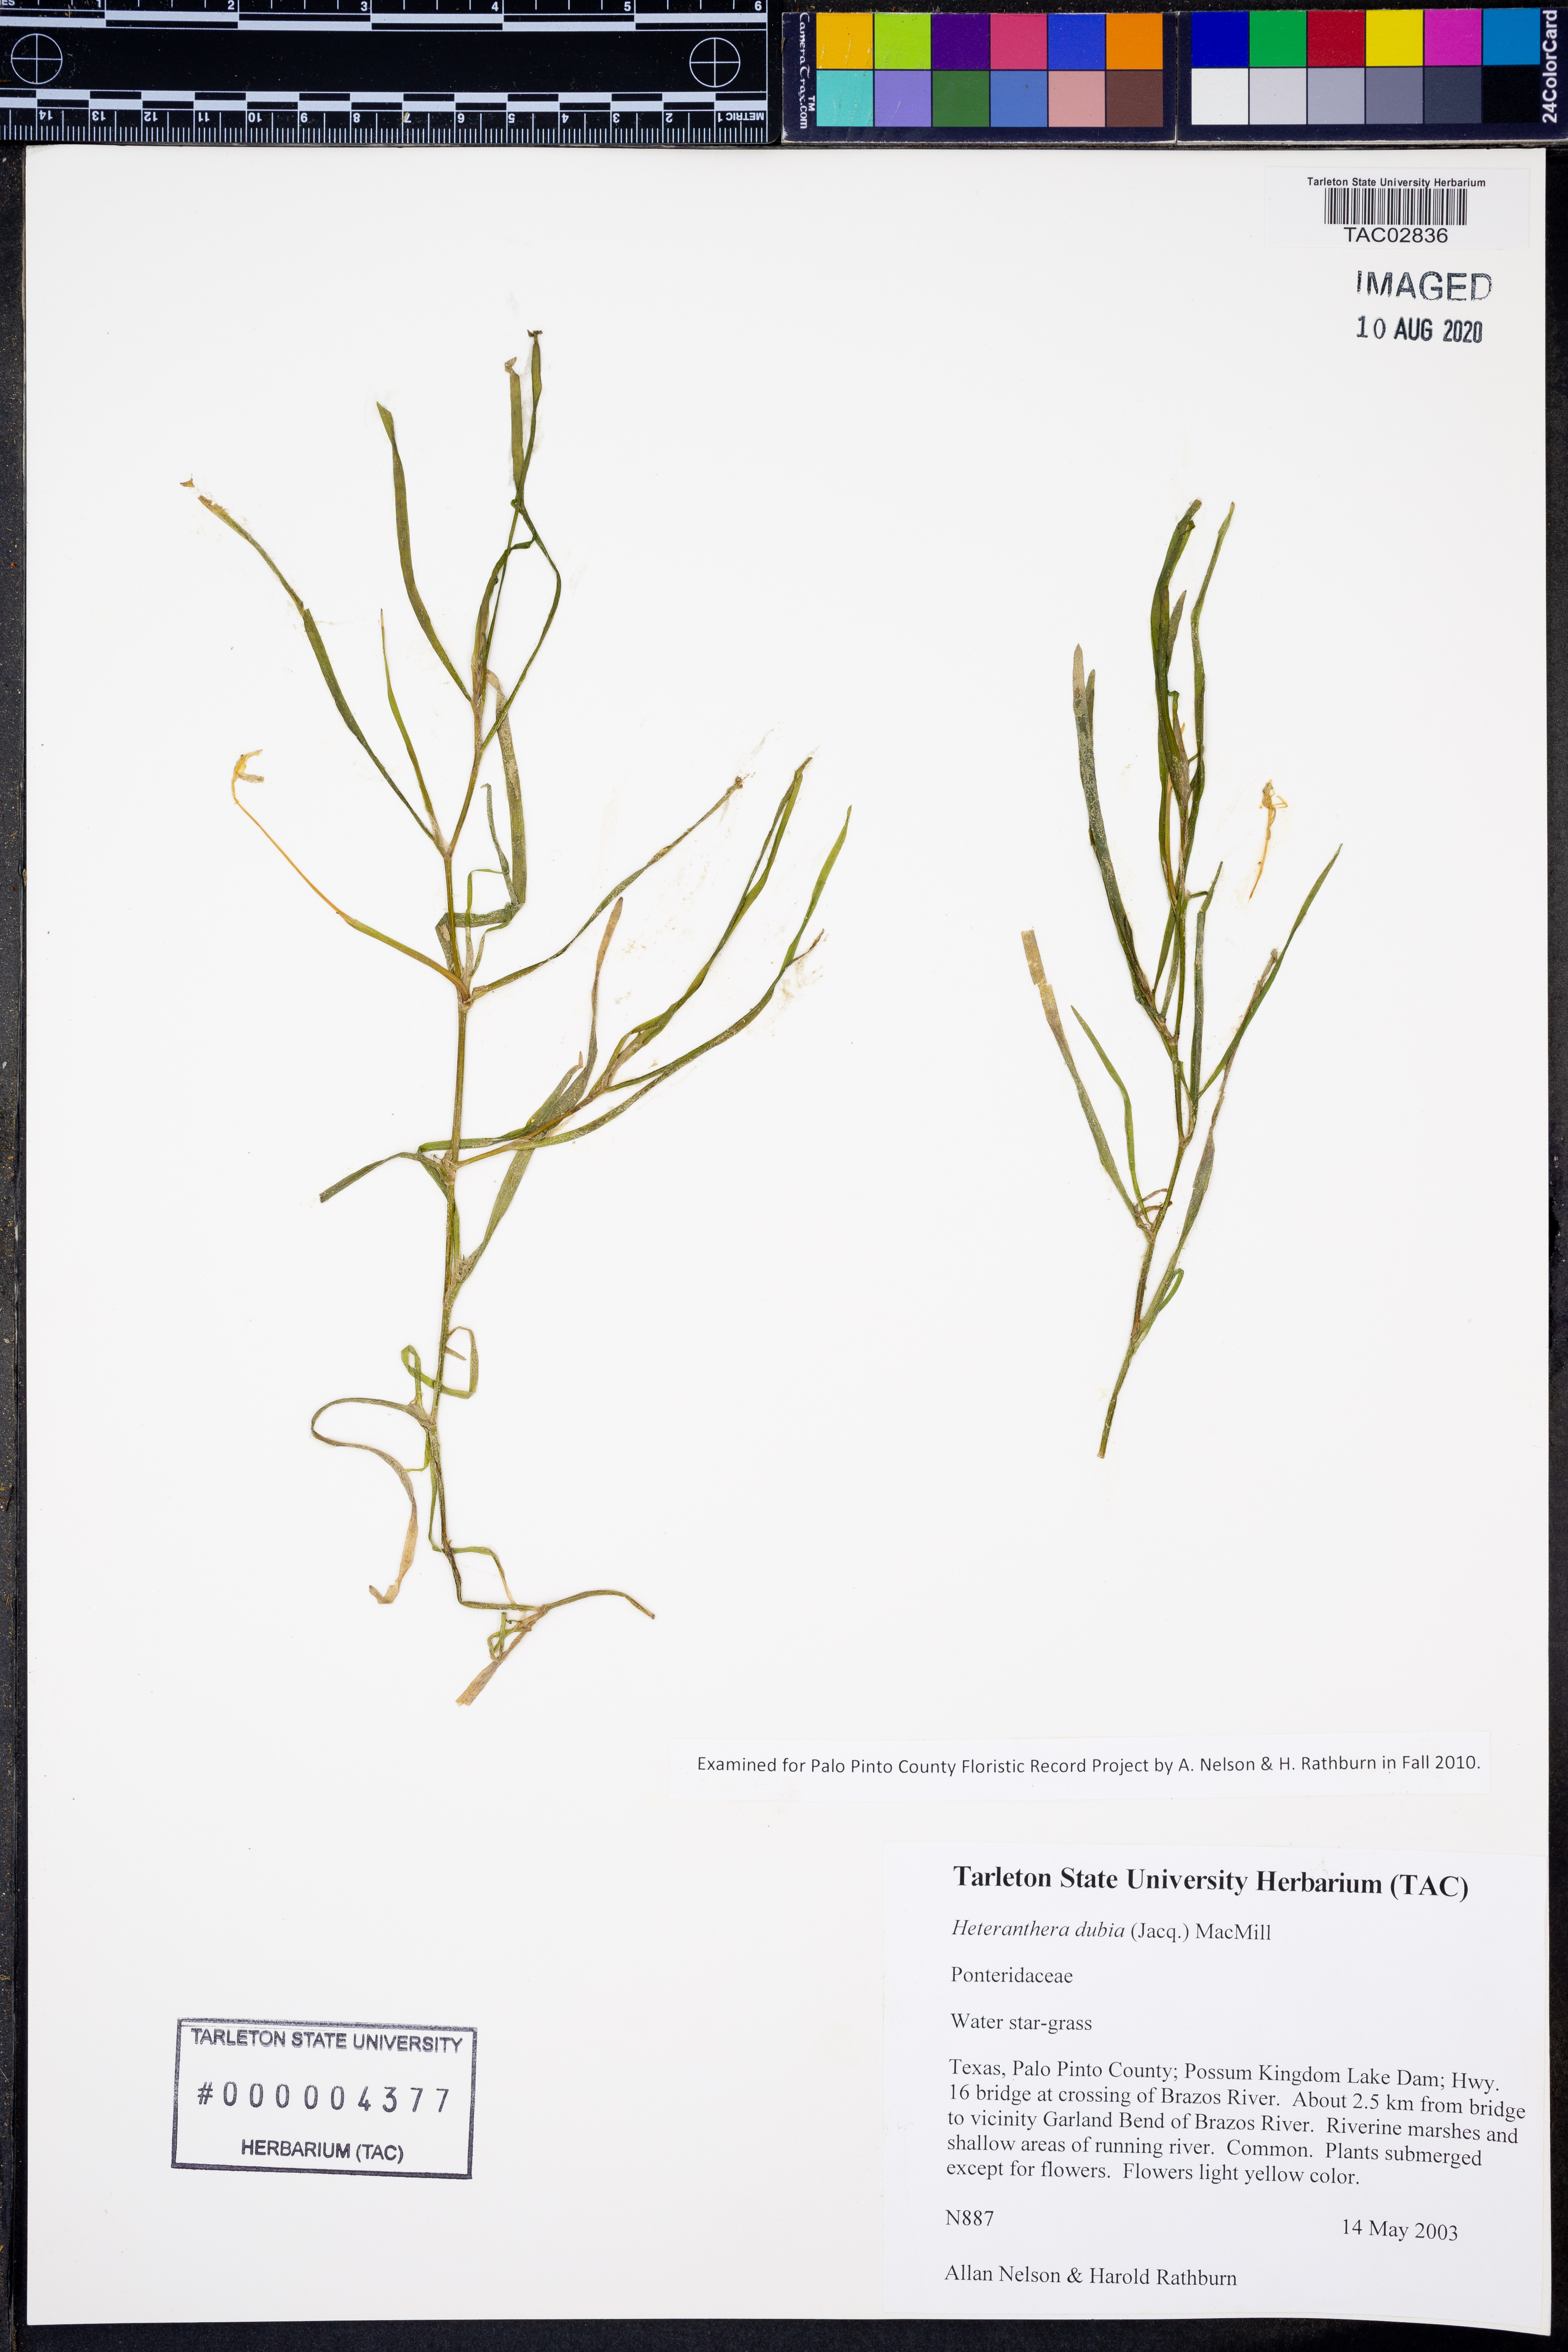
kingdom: Plantae
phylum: Tracheophyta
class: Liliopsida
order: Commelinales
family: Pontederiaceae
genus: Heteranthera
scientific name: Heteranthera dubia
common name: Grass-leaved mud plantain
